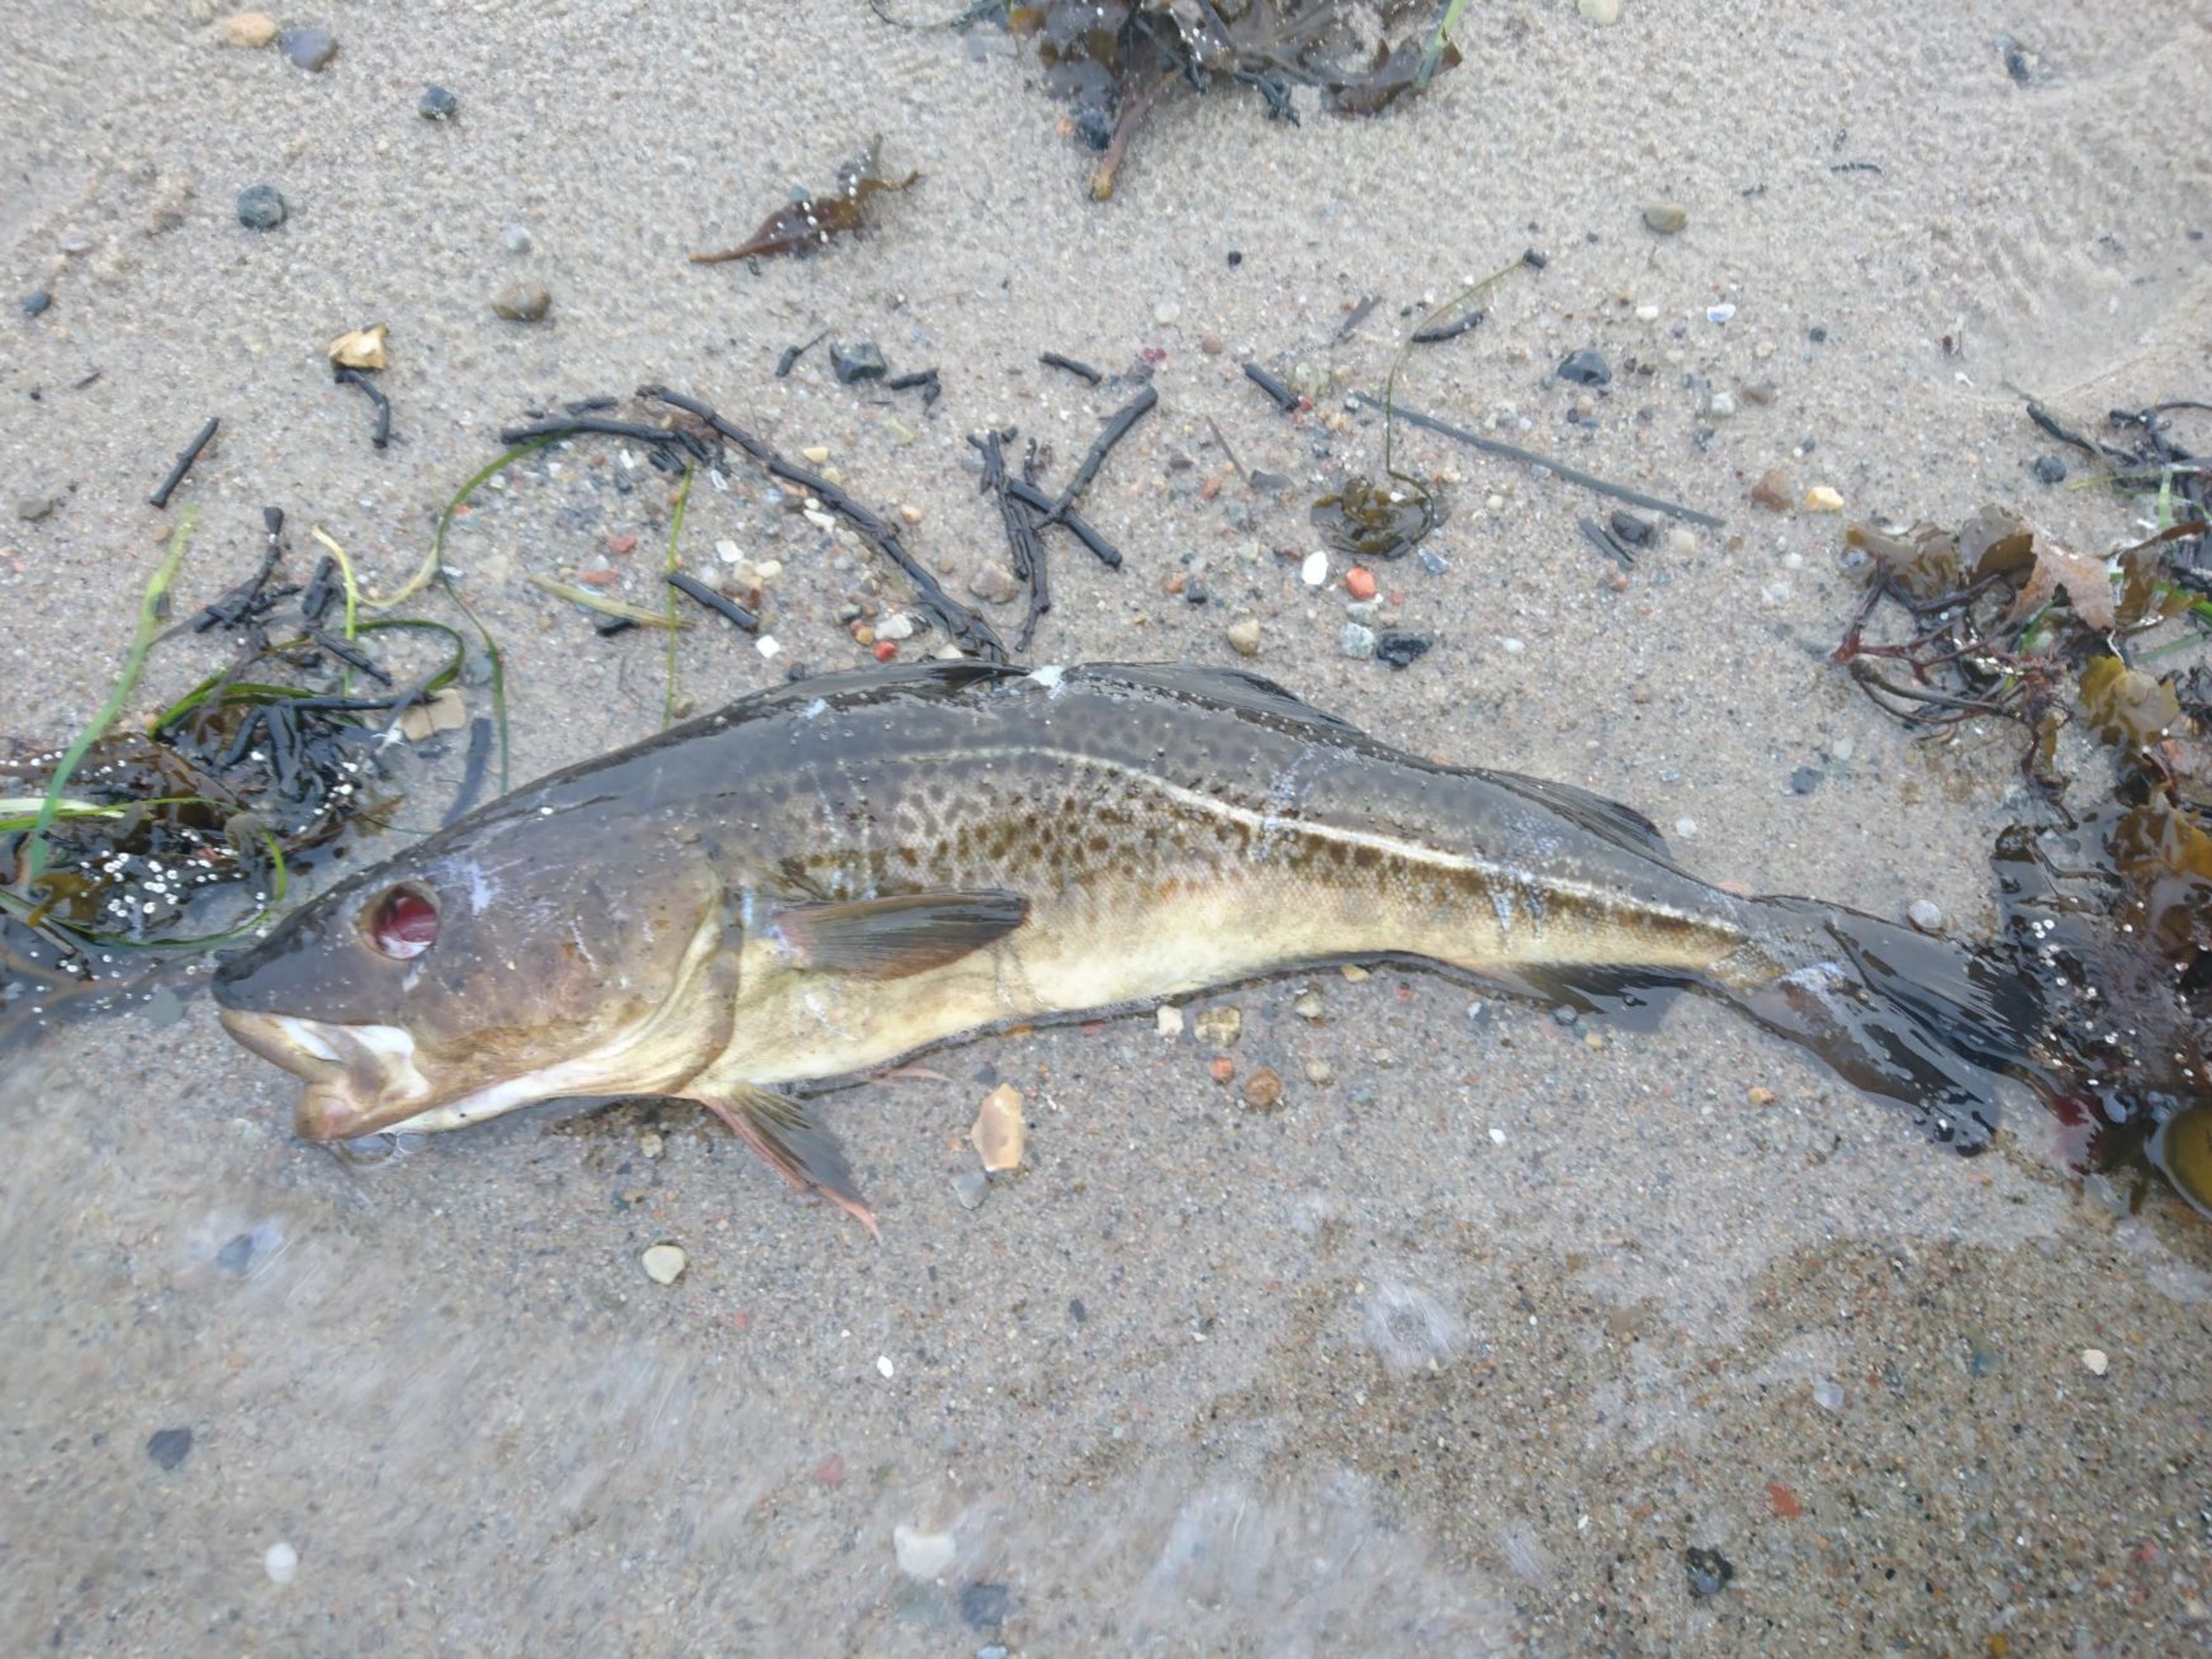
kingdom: Animalia
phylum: Chordata
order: Gadiformes
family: Gadidae
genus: Gadus
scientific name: Gadus morhua
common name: Torsk
